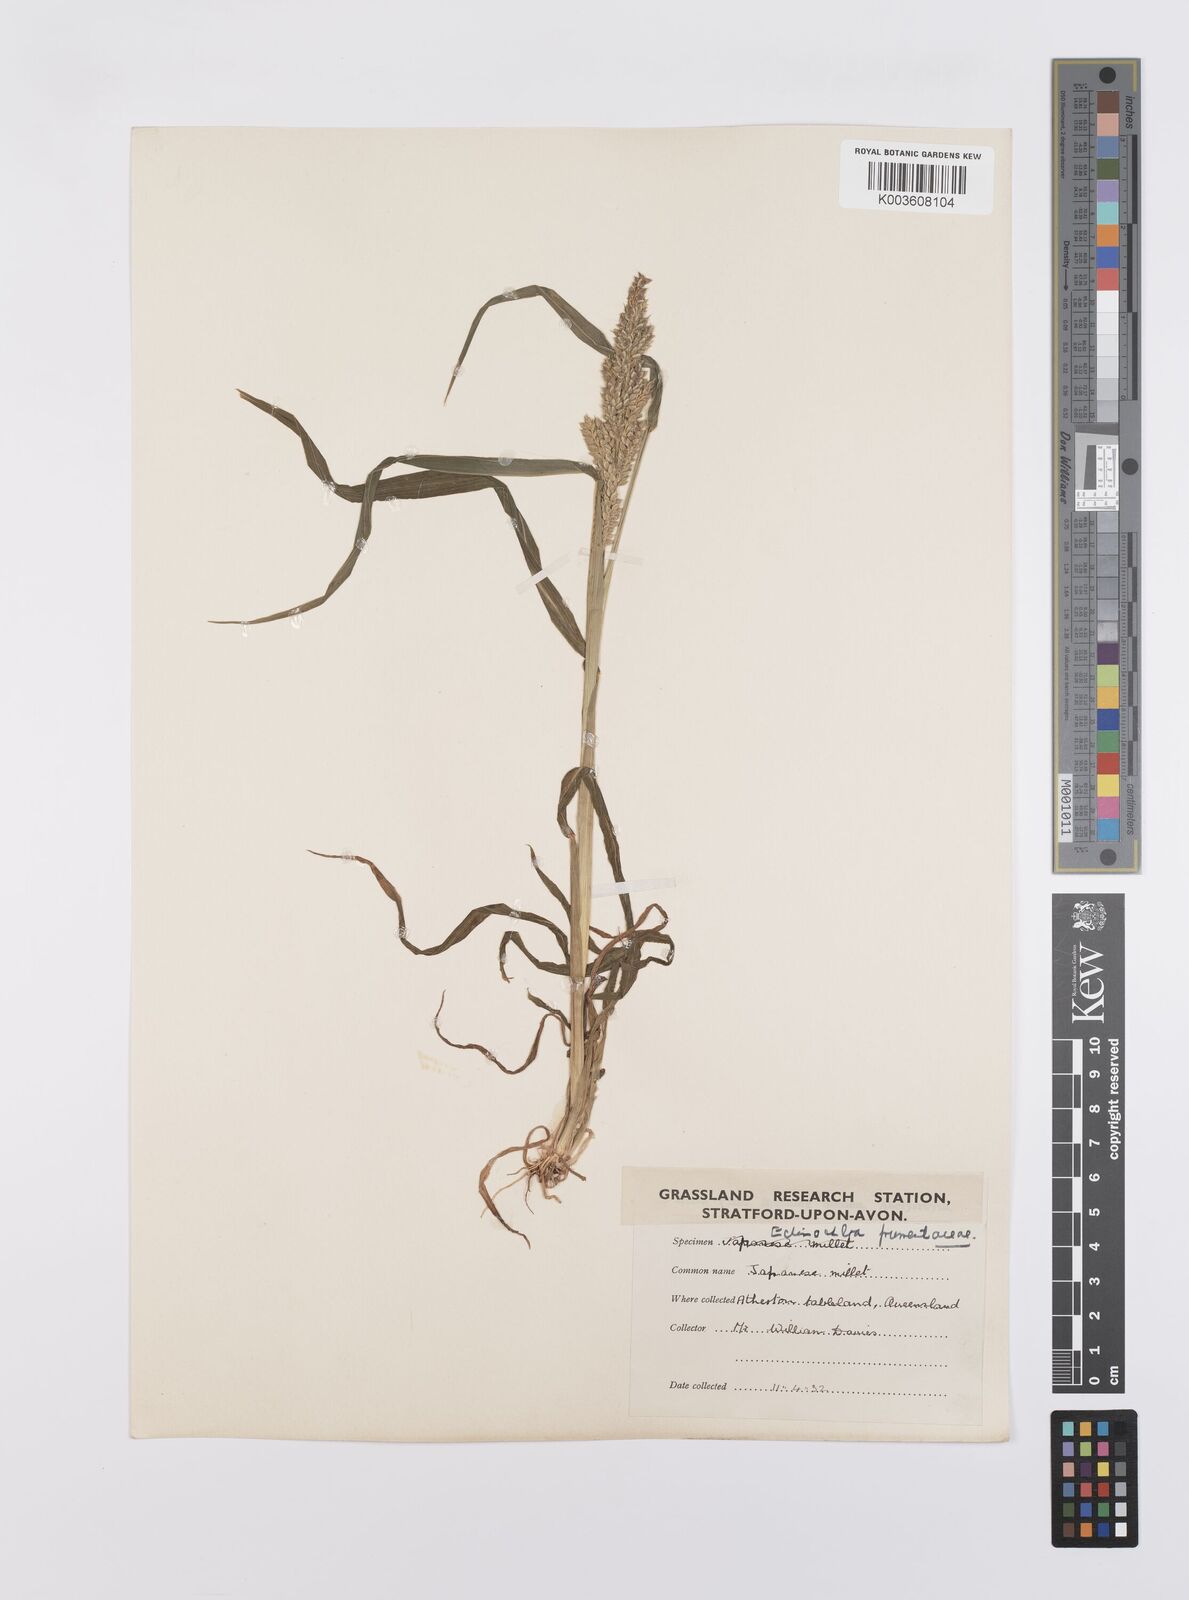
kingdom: Plantae
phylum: Tracheophyta
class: Liliopsida
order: Poales
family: Poaceae
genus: Echinochloa
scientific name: Echinochloa crus-galli
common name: Cockspur
